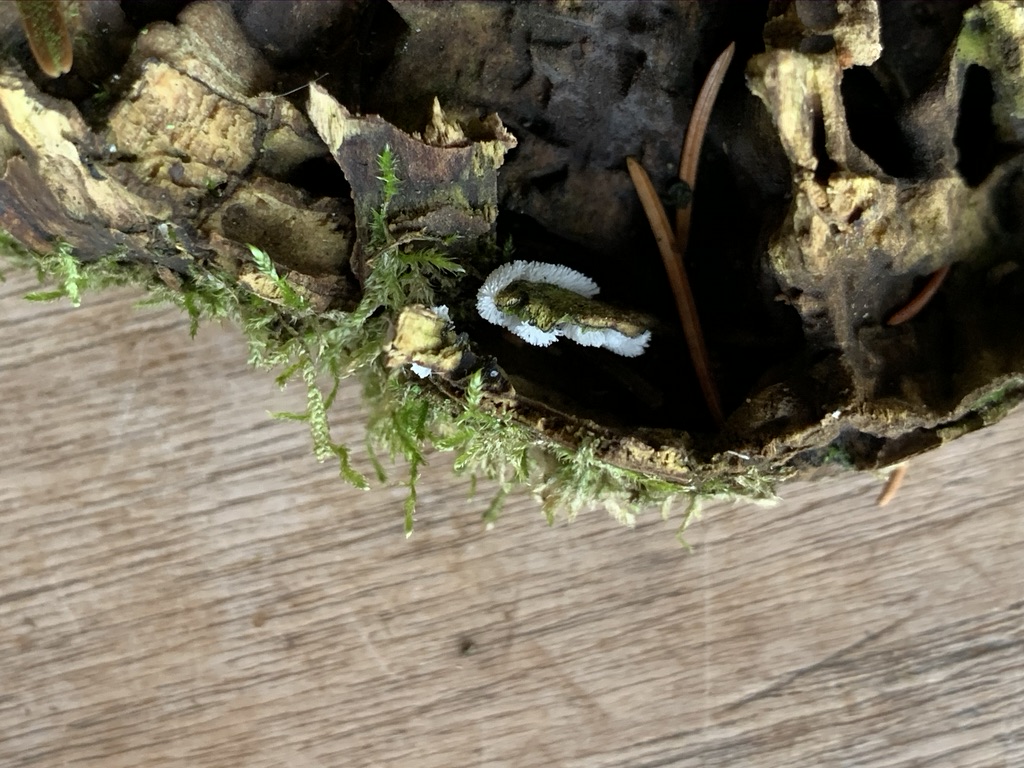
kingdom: Protozoa
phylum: Mycetozoa
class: Protosteliomycetes
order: Ceratiomyxales
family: Ceratiomyxaceae
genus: Ceratiomyxa
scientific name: Ceratiomyxa fruticulosa
